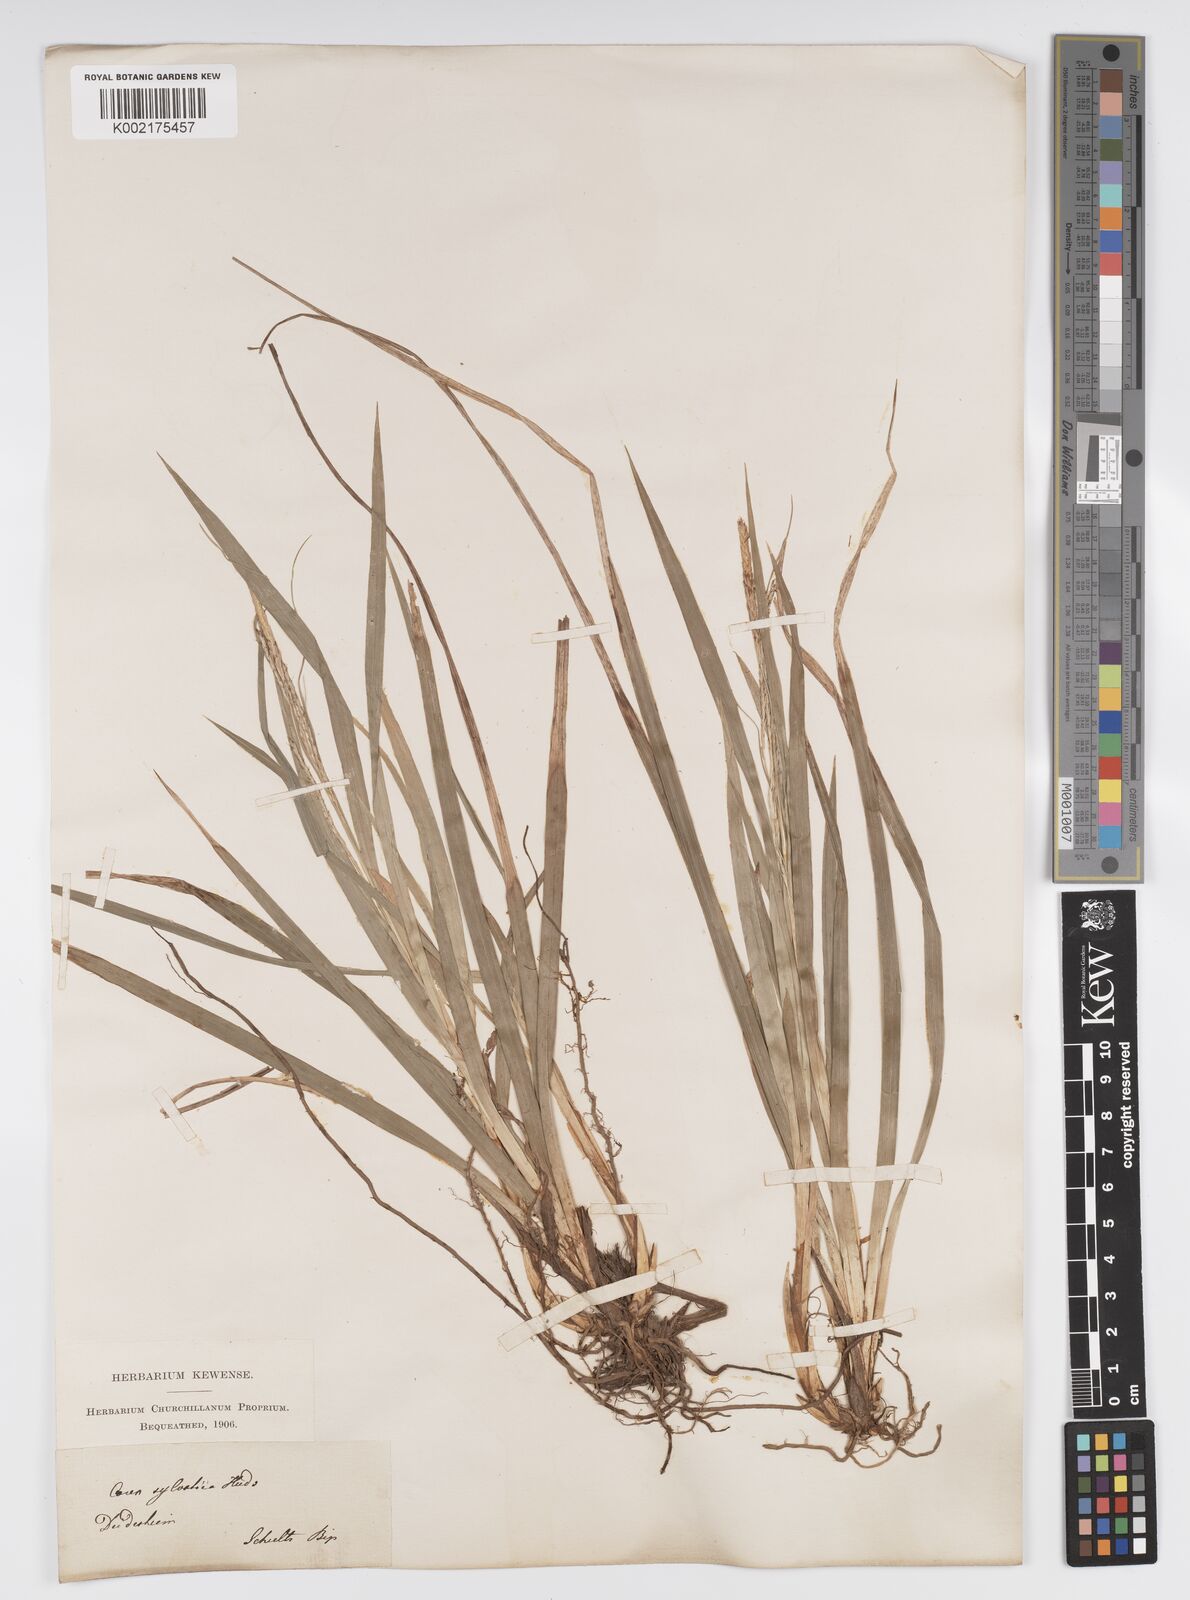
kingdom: Plantae
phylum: Tracheophyta
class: Liliopsida
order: Poales
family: Cyperaceae
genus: Carex
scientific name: Carex sylvatica
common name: Wood-sedge
